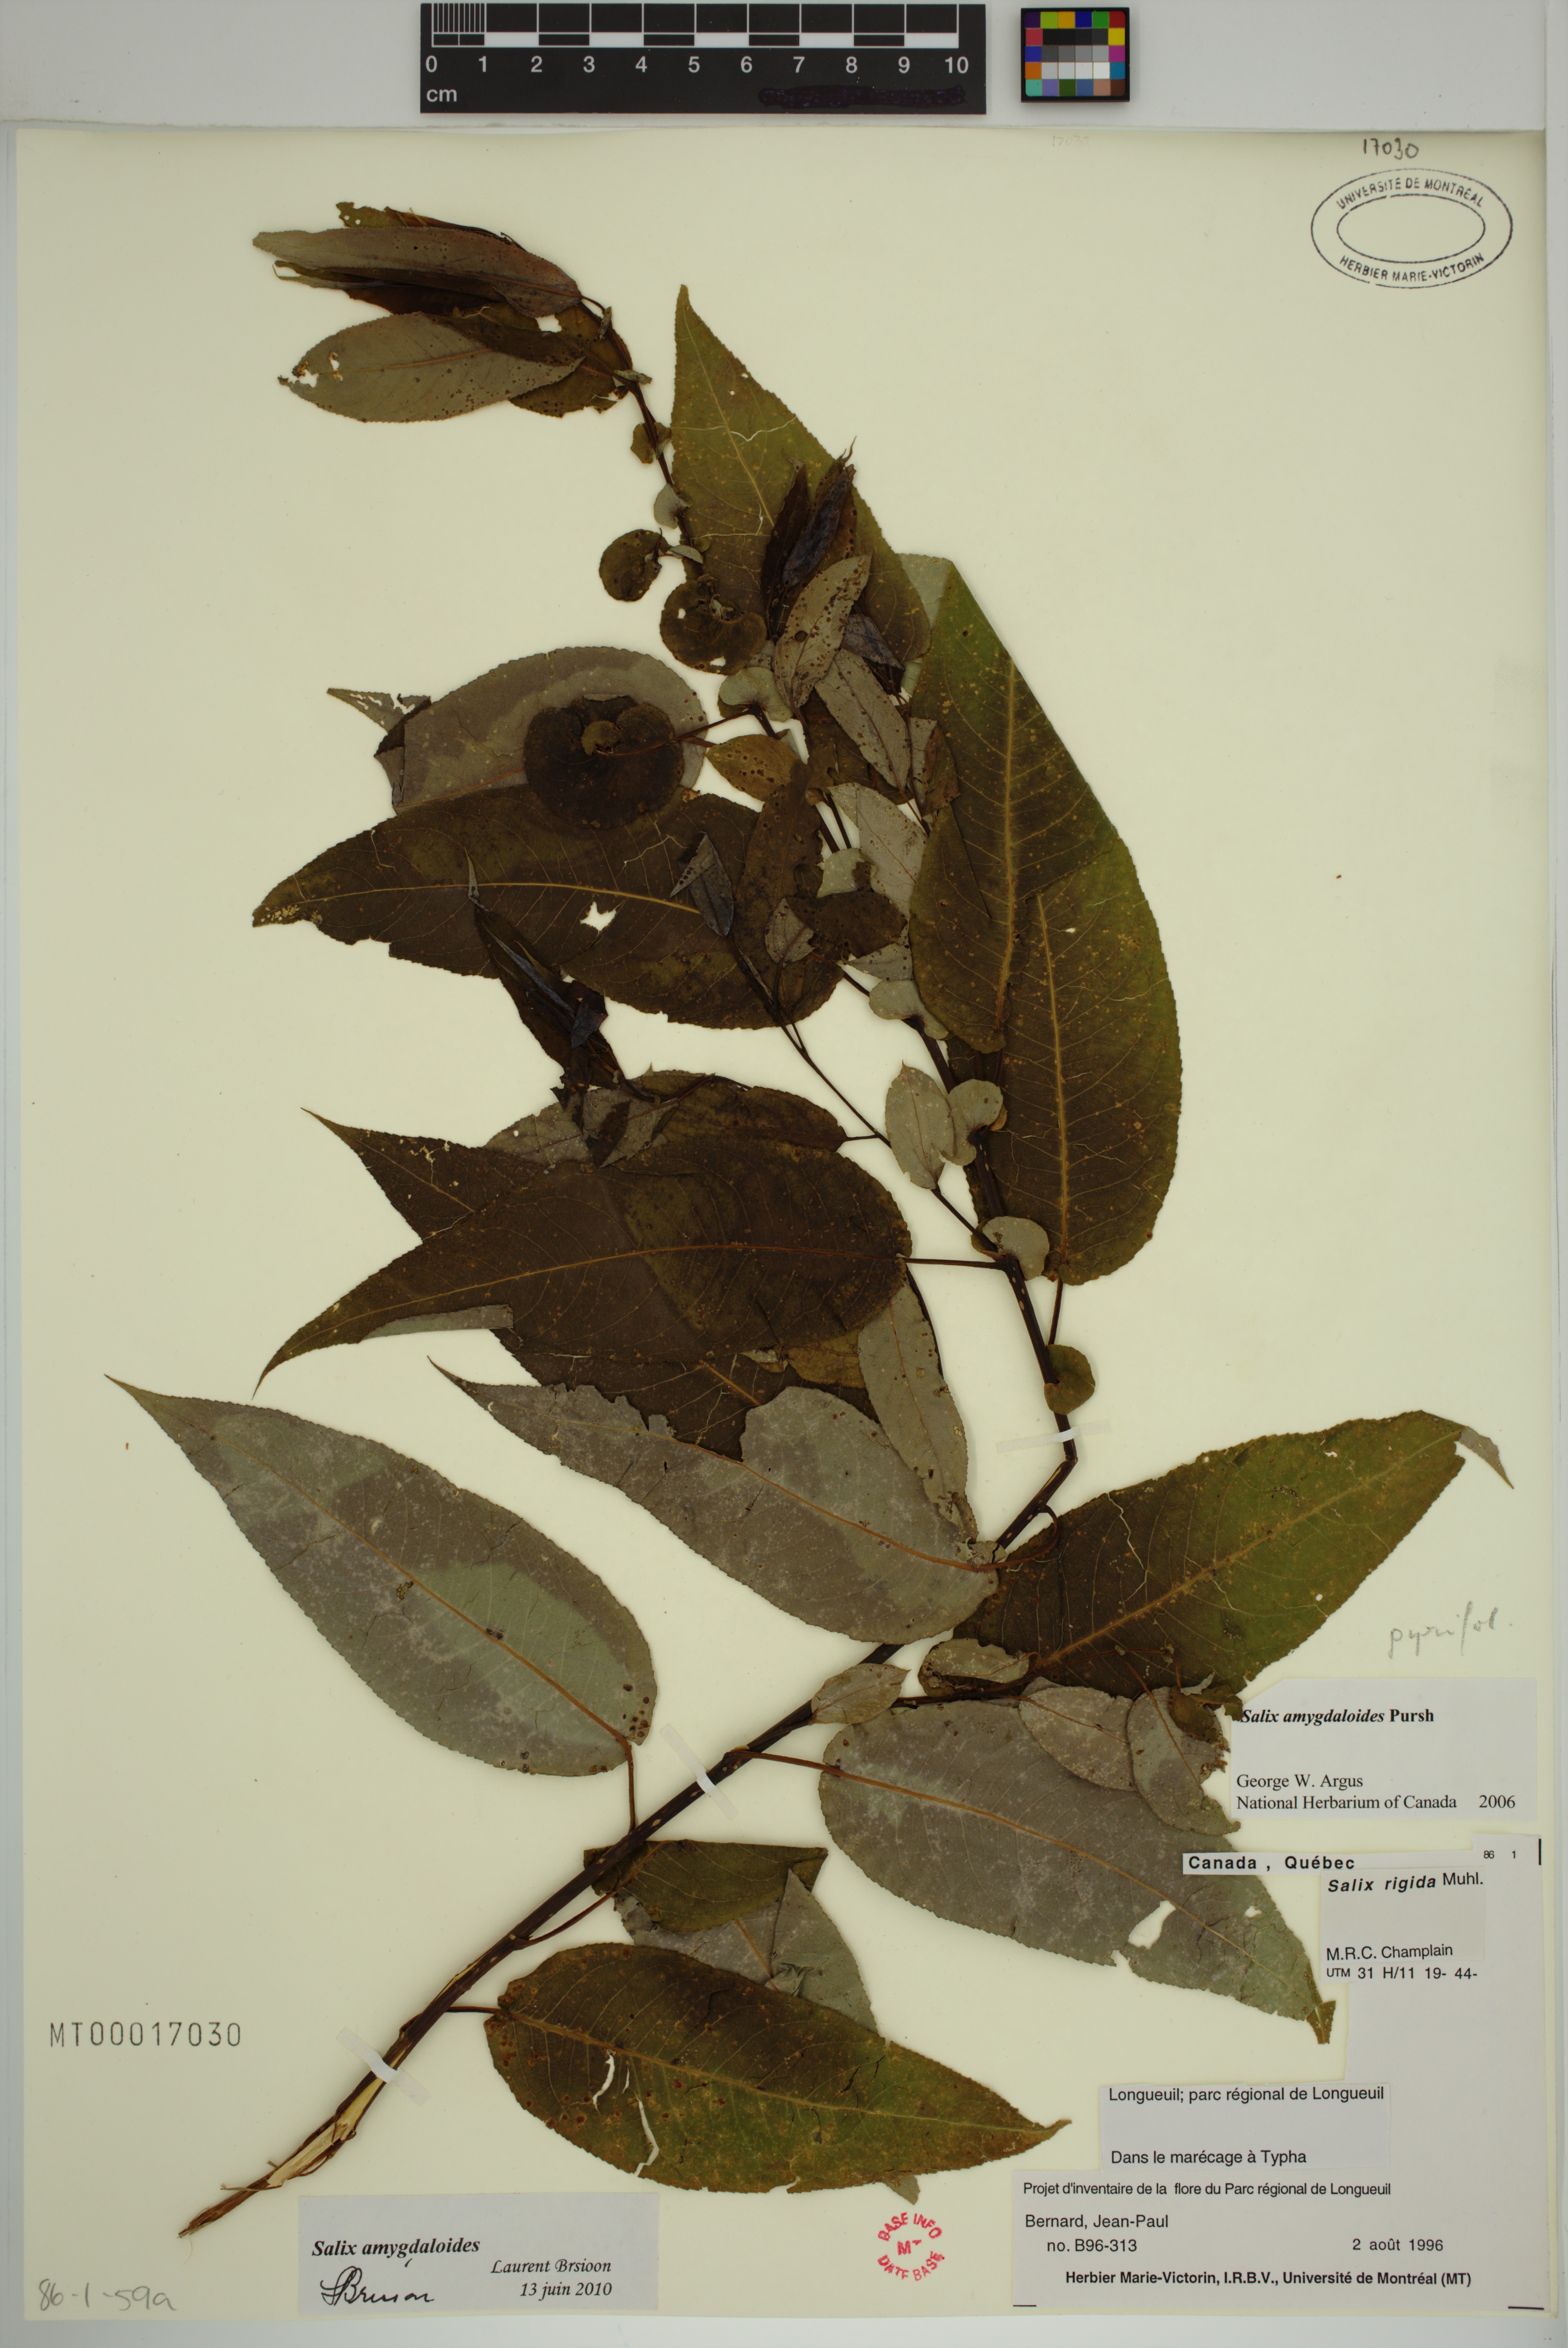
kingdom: Plantae
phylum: Tracheophyta
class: Magnoliopsida
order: Malpighiales
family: Salicaceae
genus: Salix
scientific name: Salix amygdaloides
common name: Peach leaf willow
